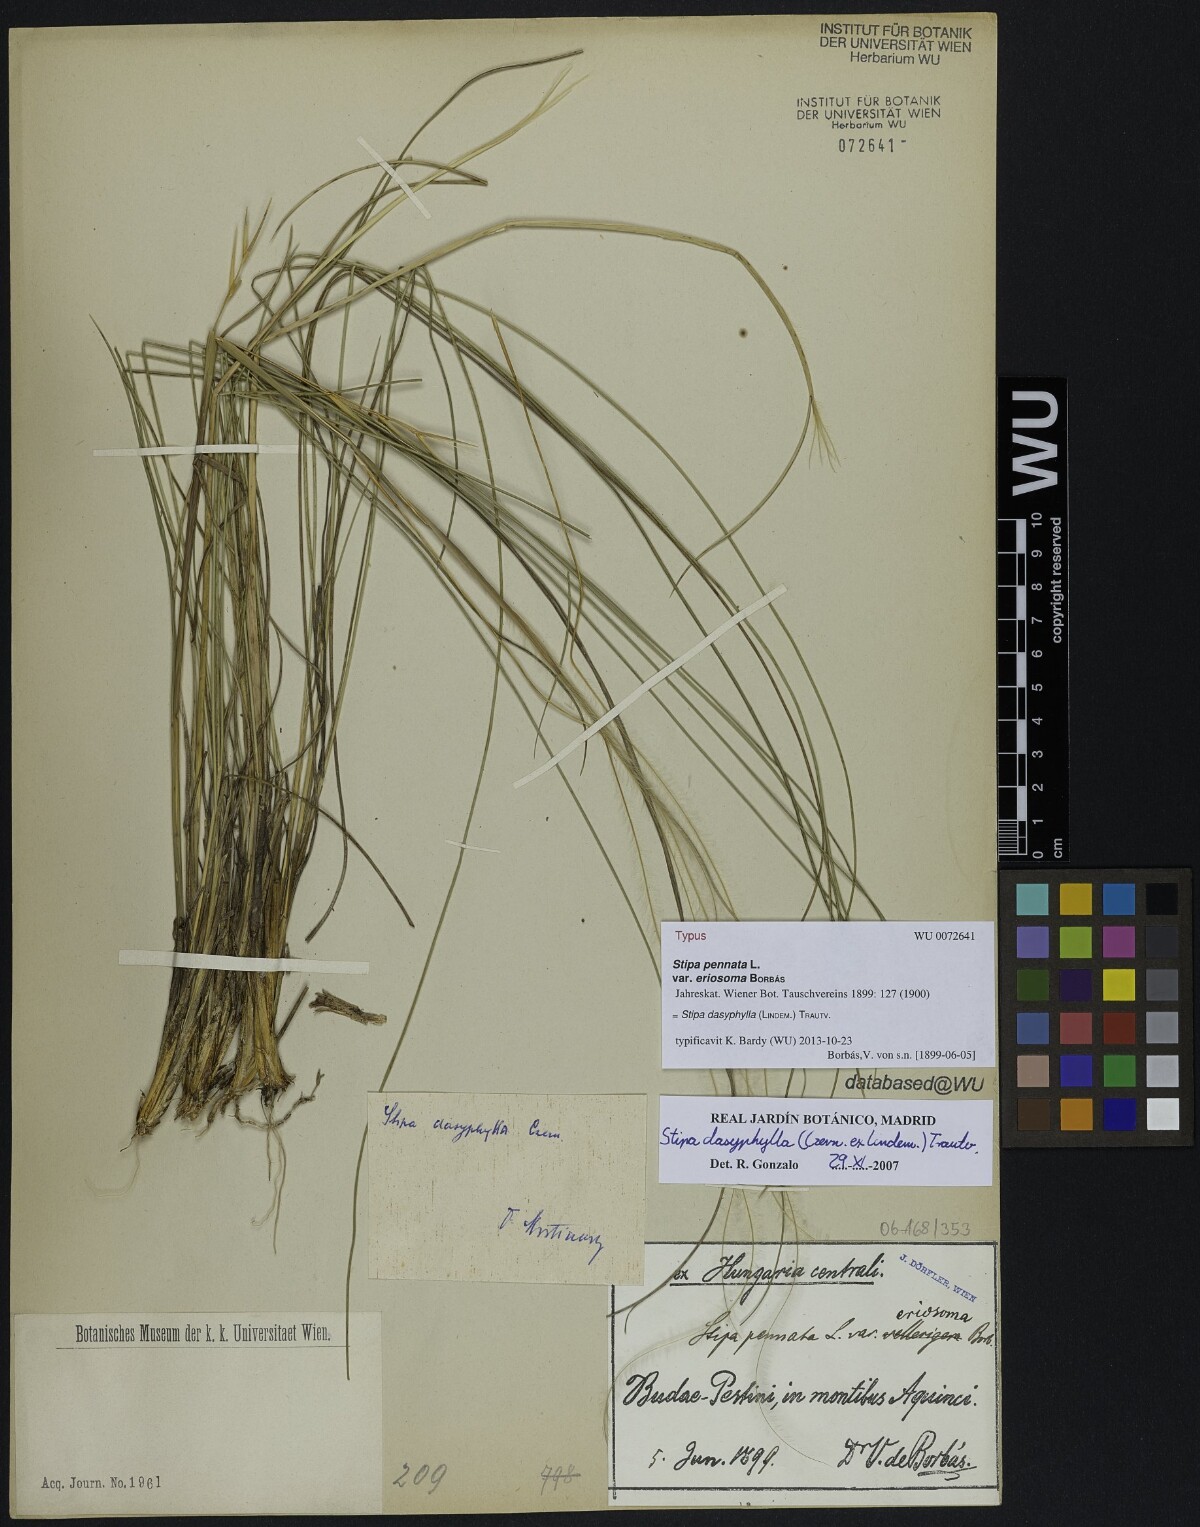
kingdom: Plantae
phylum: Tracheophyta
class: Liliopsida
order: Poales
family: Poaceae
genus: Stipa
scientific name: Stipa pennata
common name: European feather grass
